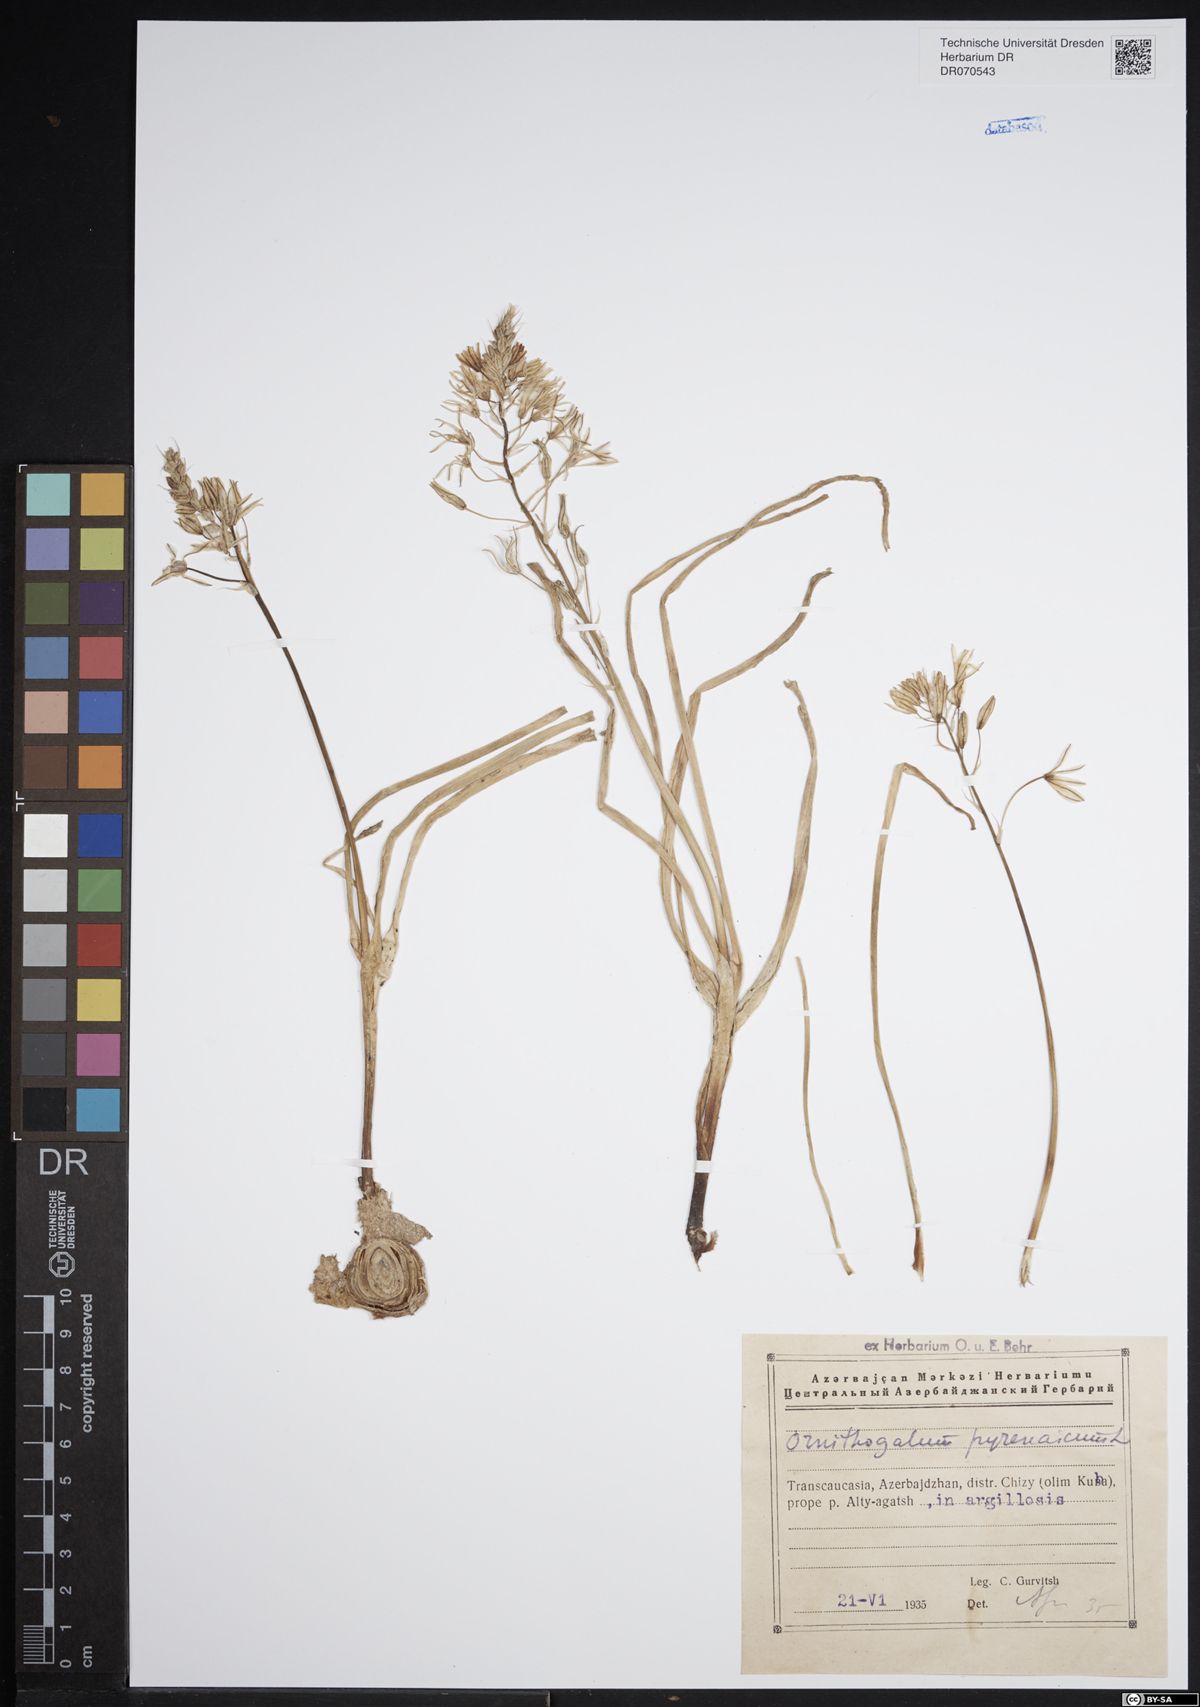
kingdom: Plantae
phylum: Tracheophyta
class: Liliopsida
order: Asparagales
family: Asparagaceae
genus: Ornithogalum
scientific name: Ornithogalum pyrenaicum
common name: Spiked star-of-bethlehem
